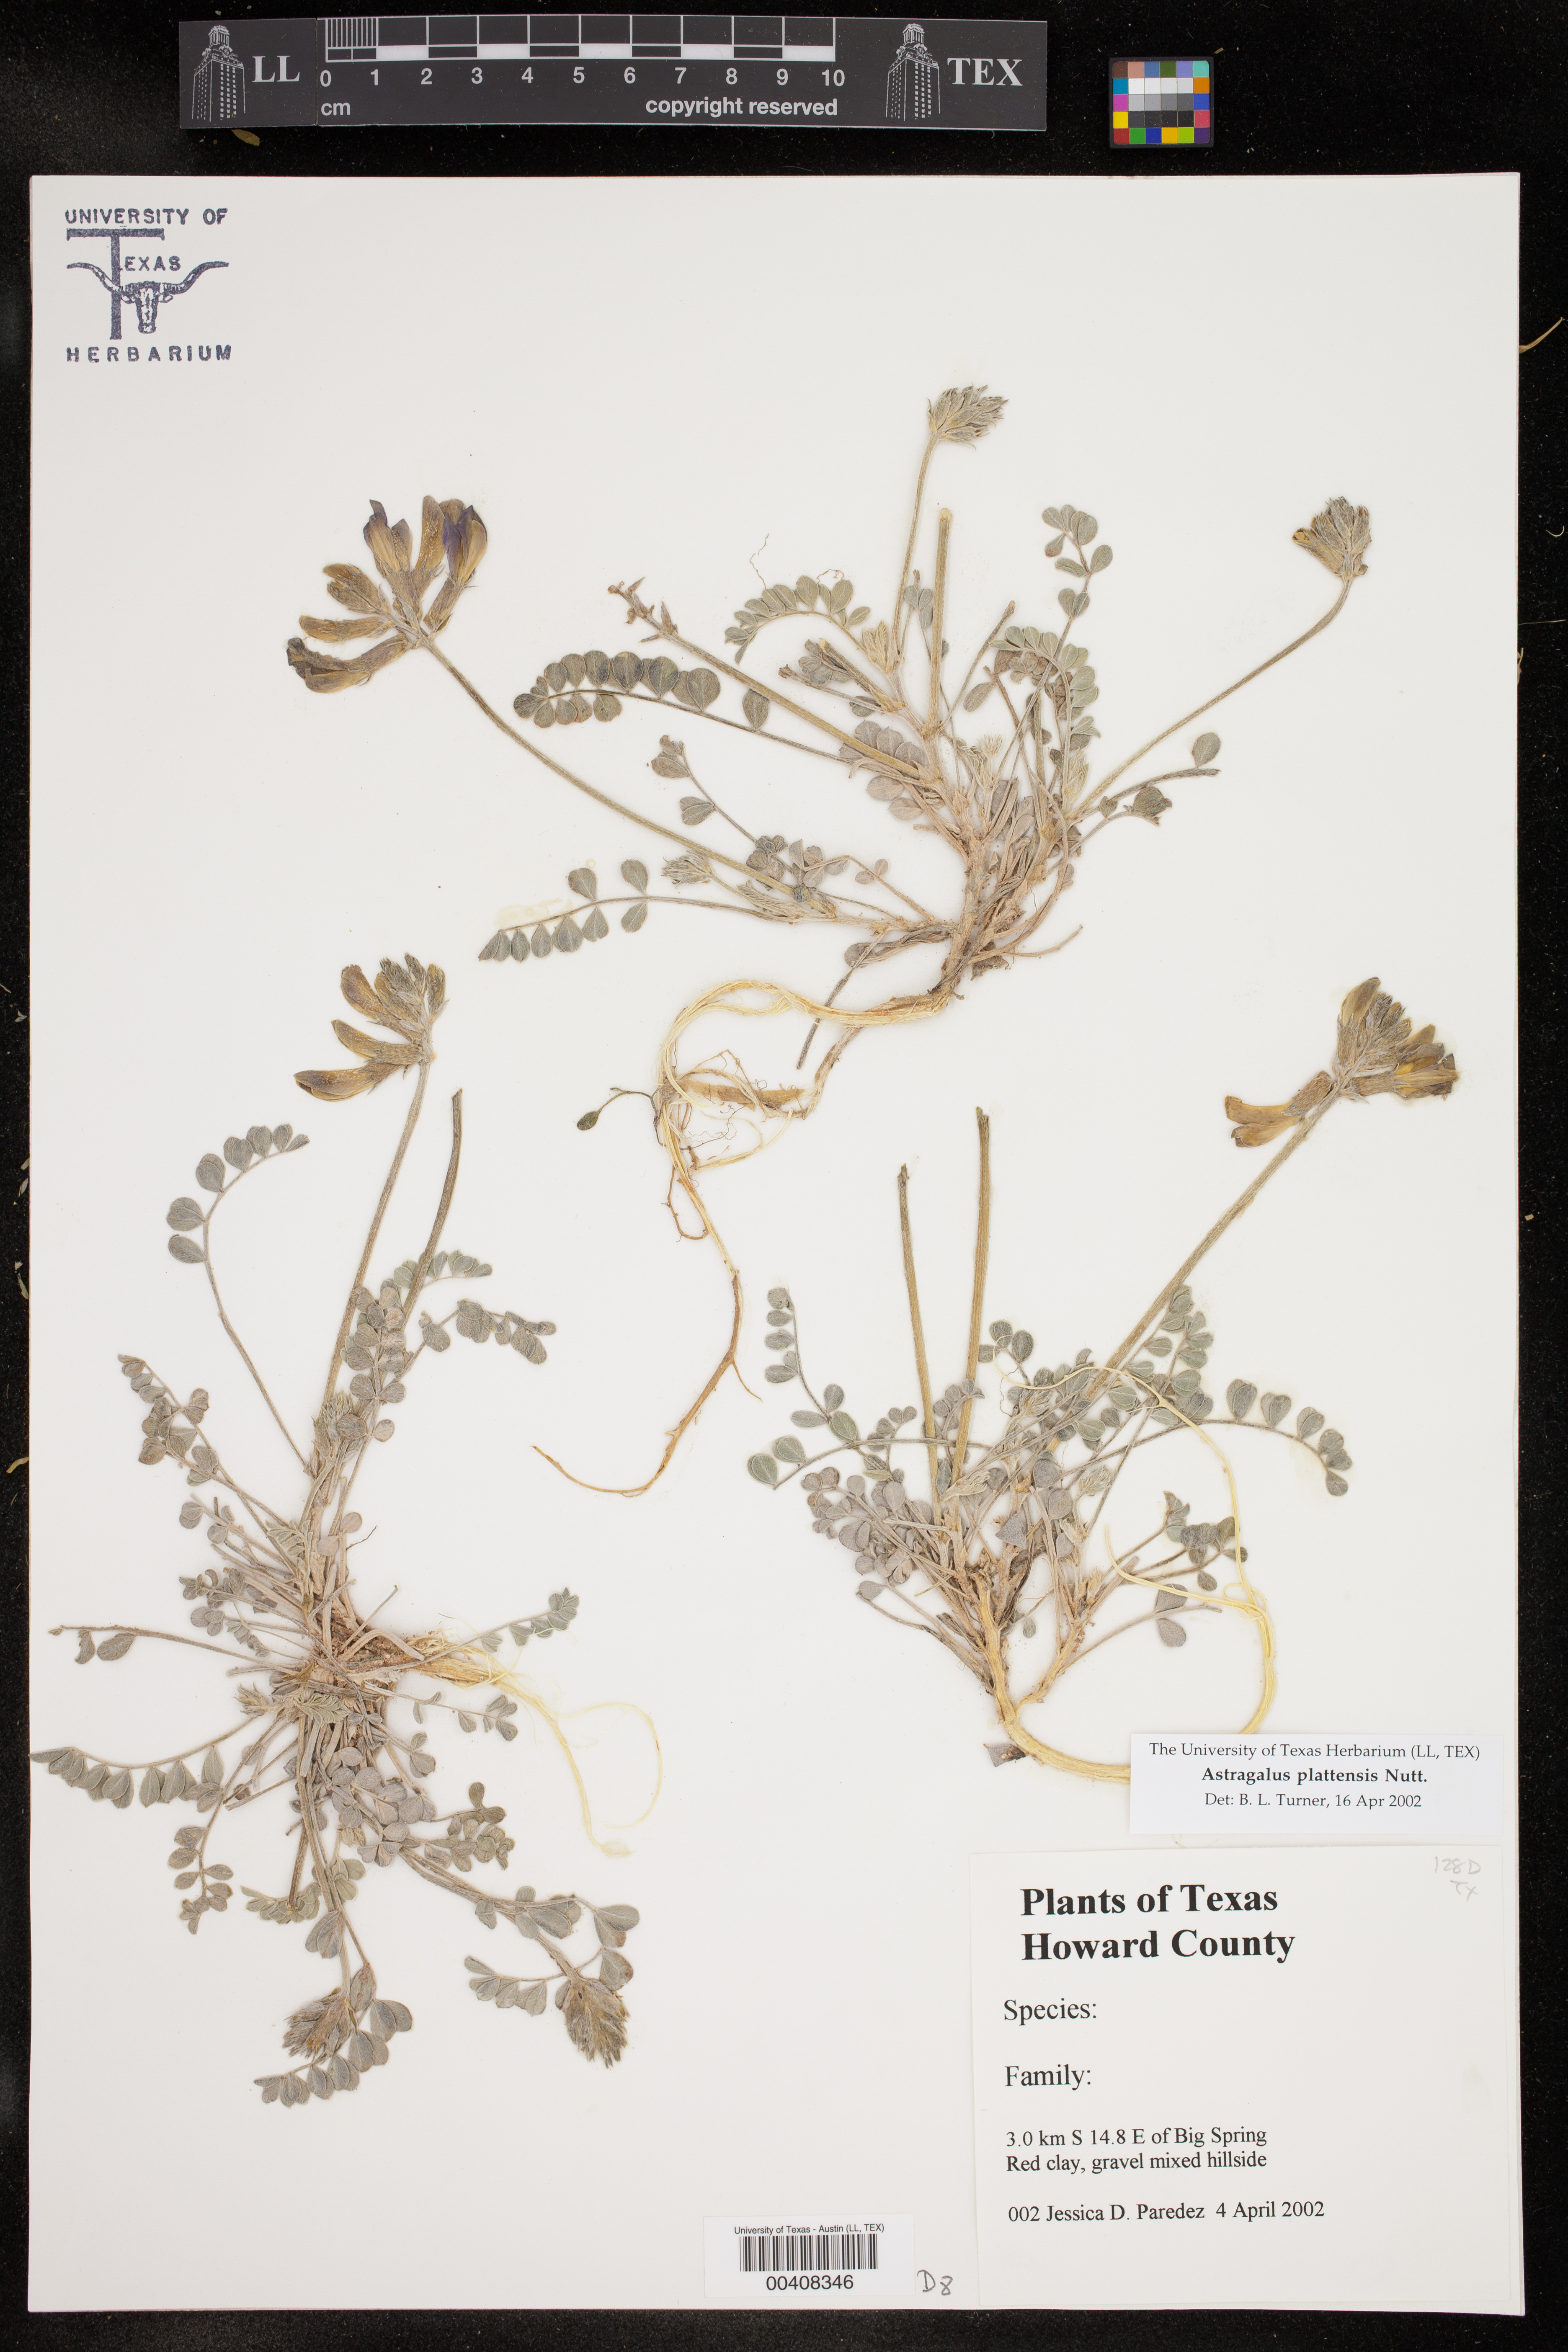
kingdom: Plantae
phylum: Tracheophyta
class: Magnoliopsida
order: Fabales
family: Fabaceae
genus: Astragalus
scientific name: Astragalus lindheimeri
